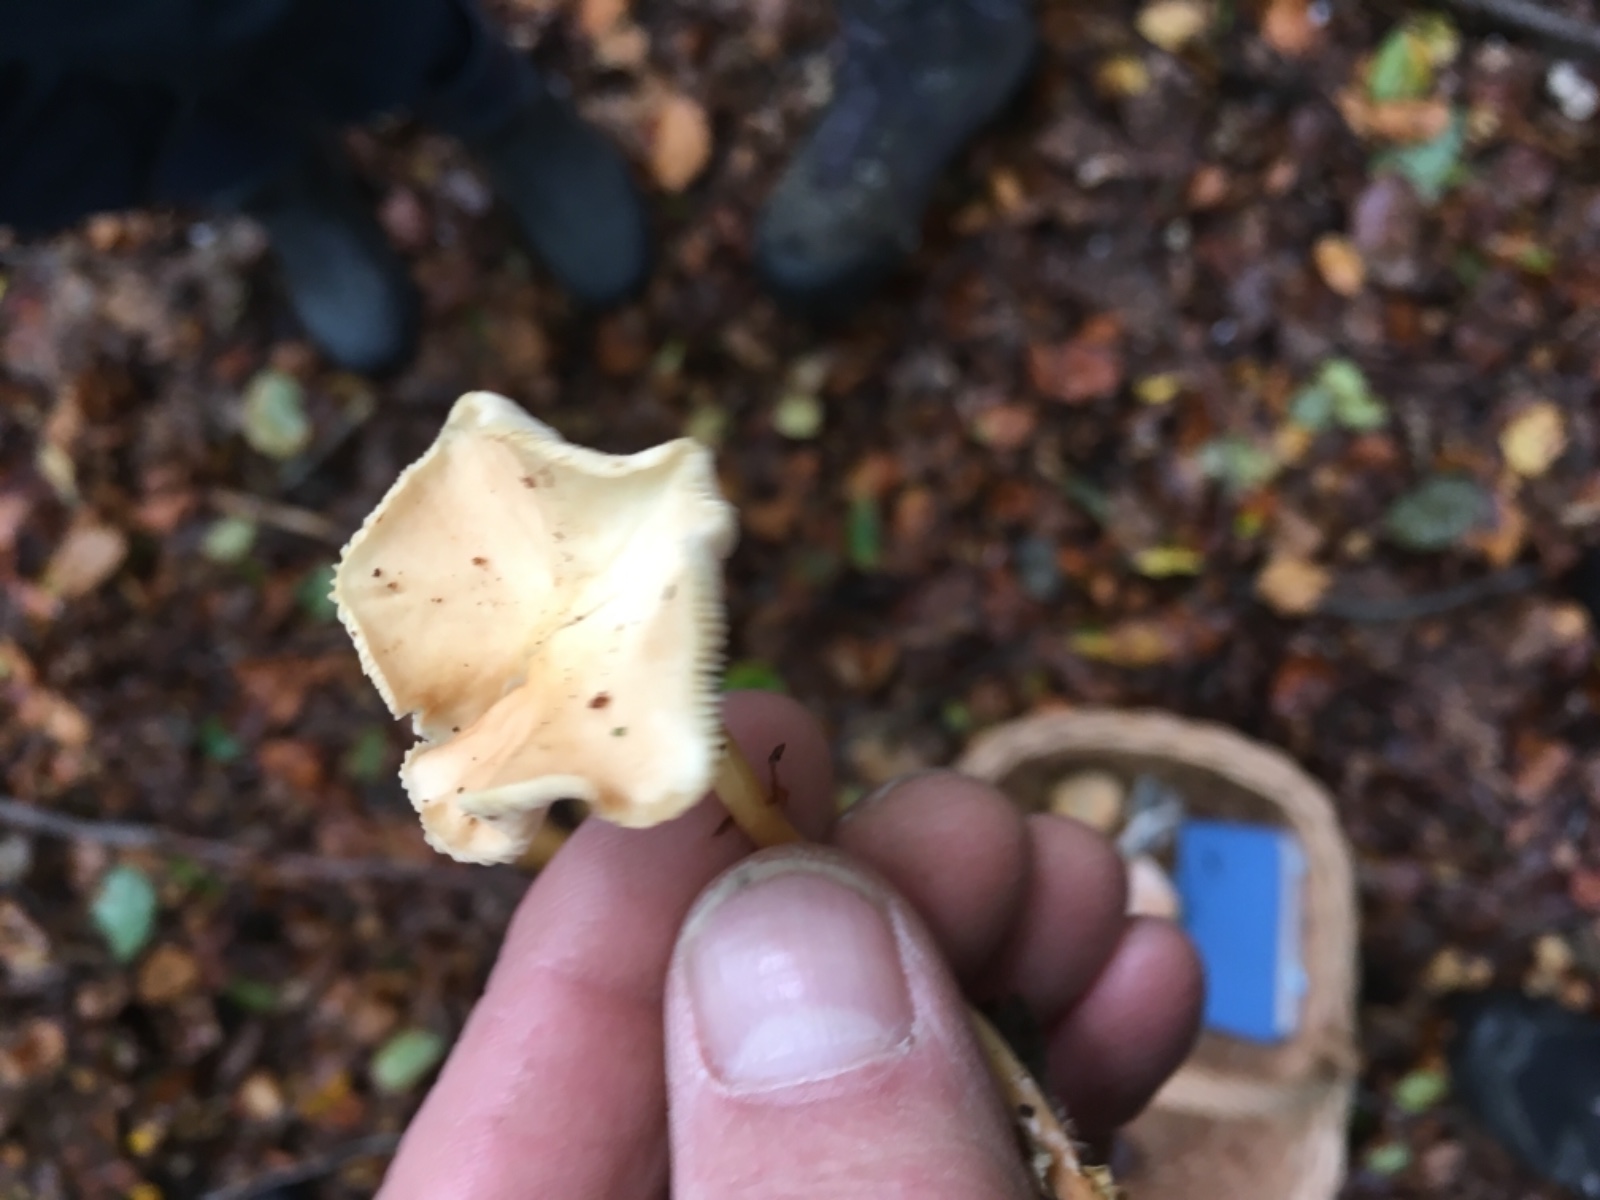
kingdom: Fungi
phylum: Basidiomycota
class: Agaricomycetes
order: Agaricales
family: Omphalotaceae
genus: Gymnopus
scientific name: Gymnopus dryophilus
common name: løv-fladhat
